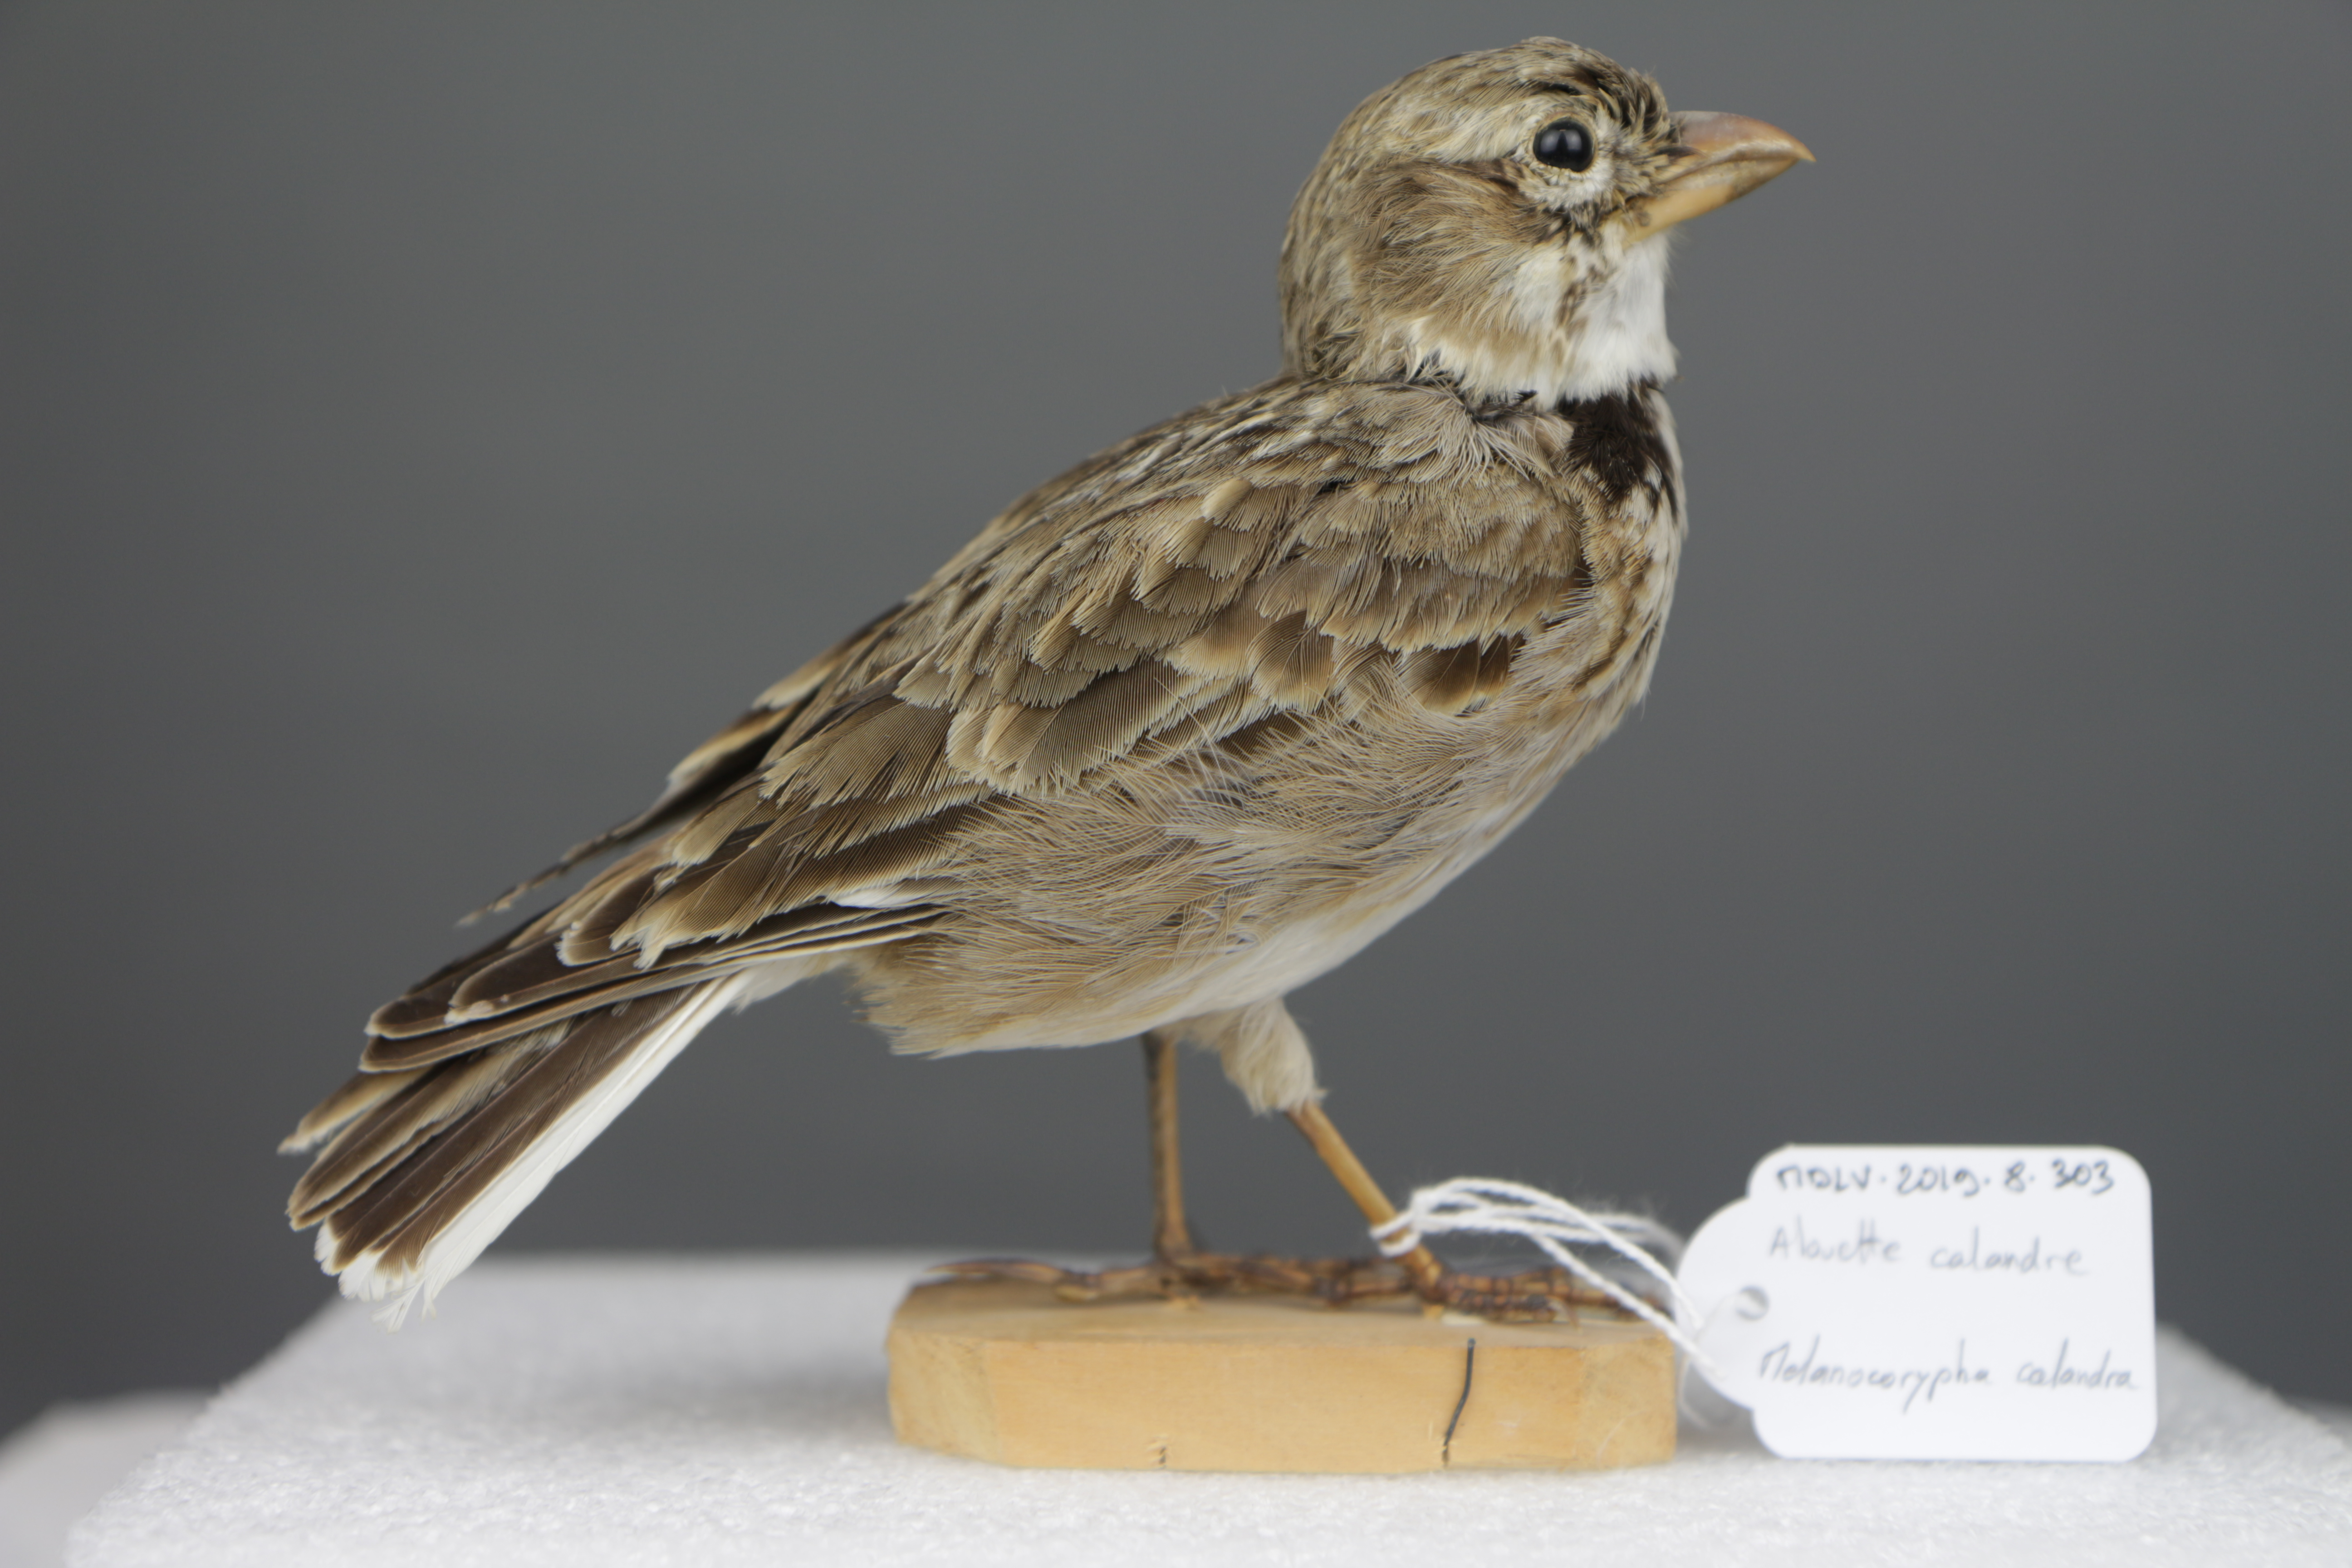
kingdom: Animalia
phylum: Chordata
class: Aves
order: Passeriformes
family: Alaudidae
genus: Melanocorypha
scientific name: Melanocorypha calandra
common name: Calandra lark
